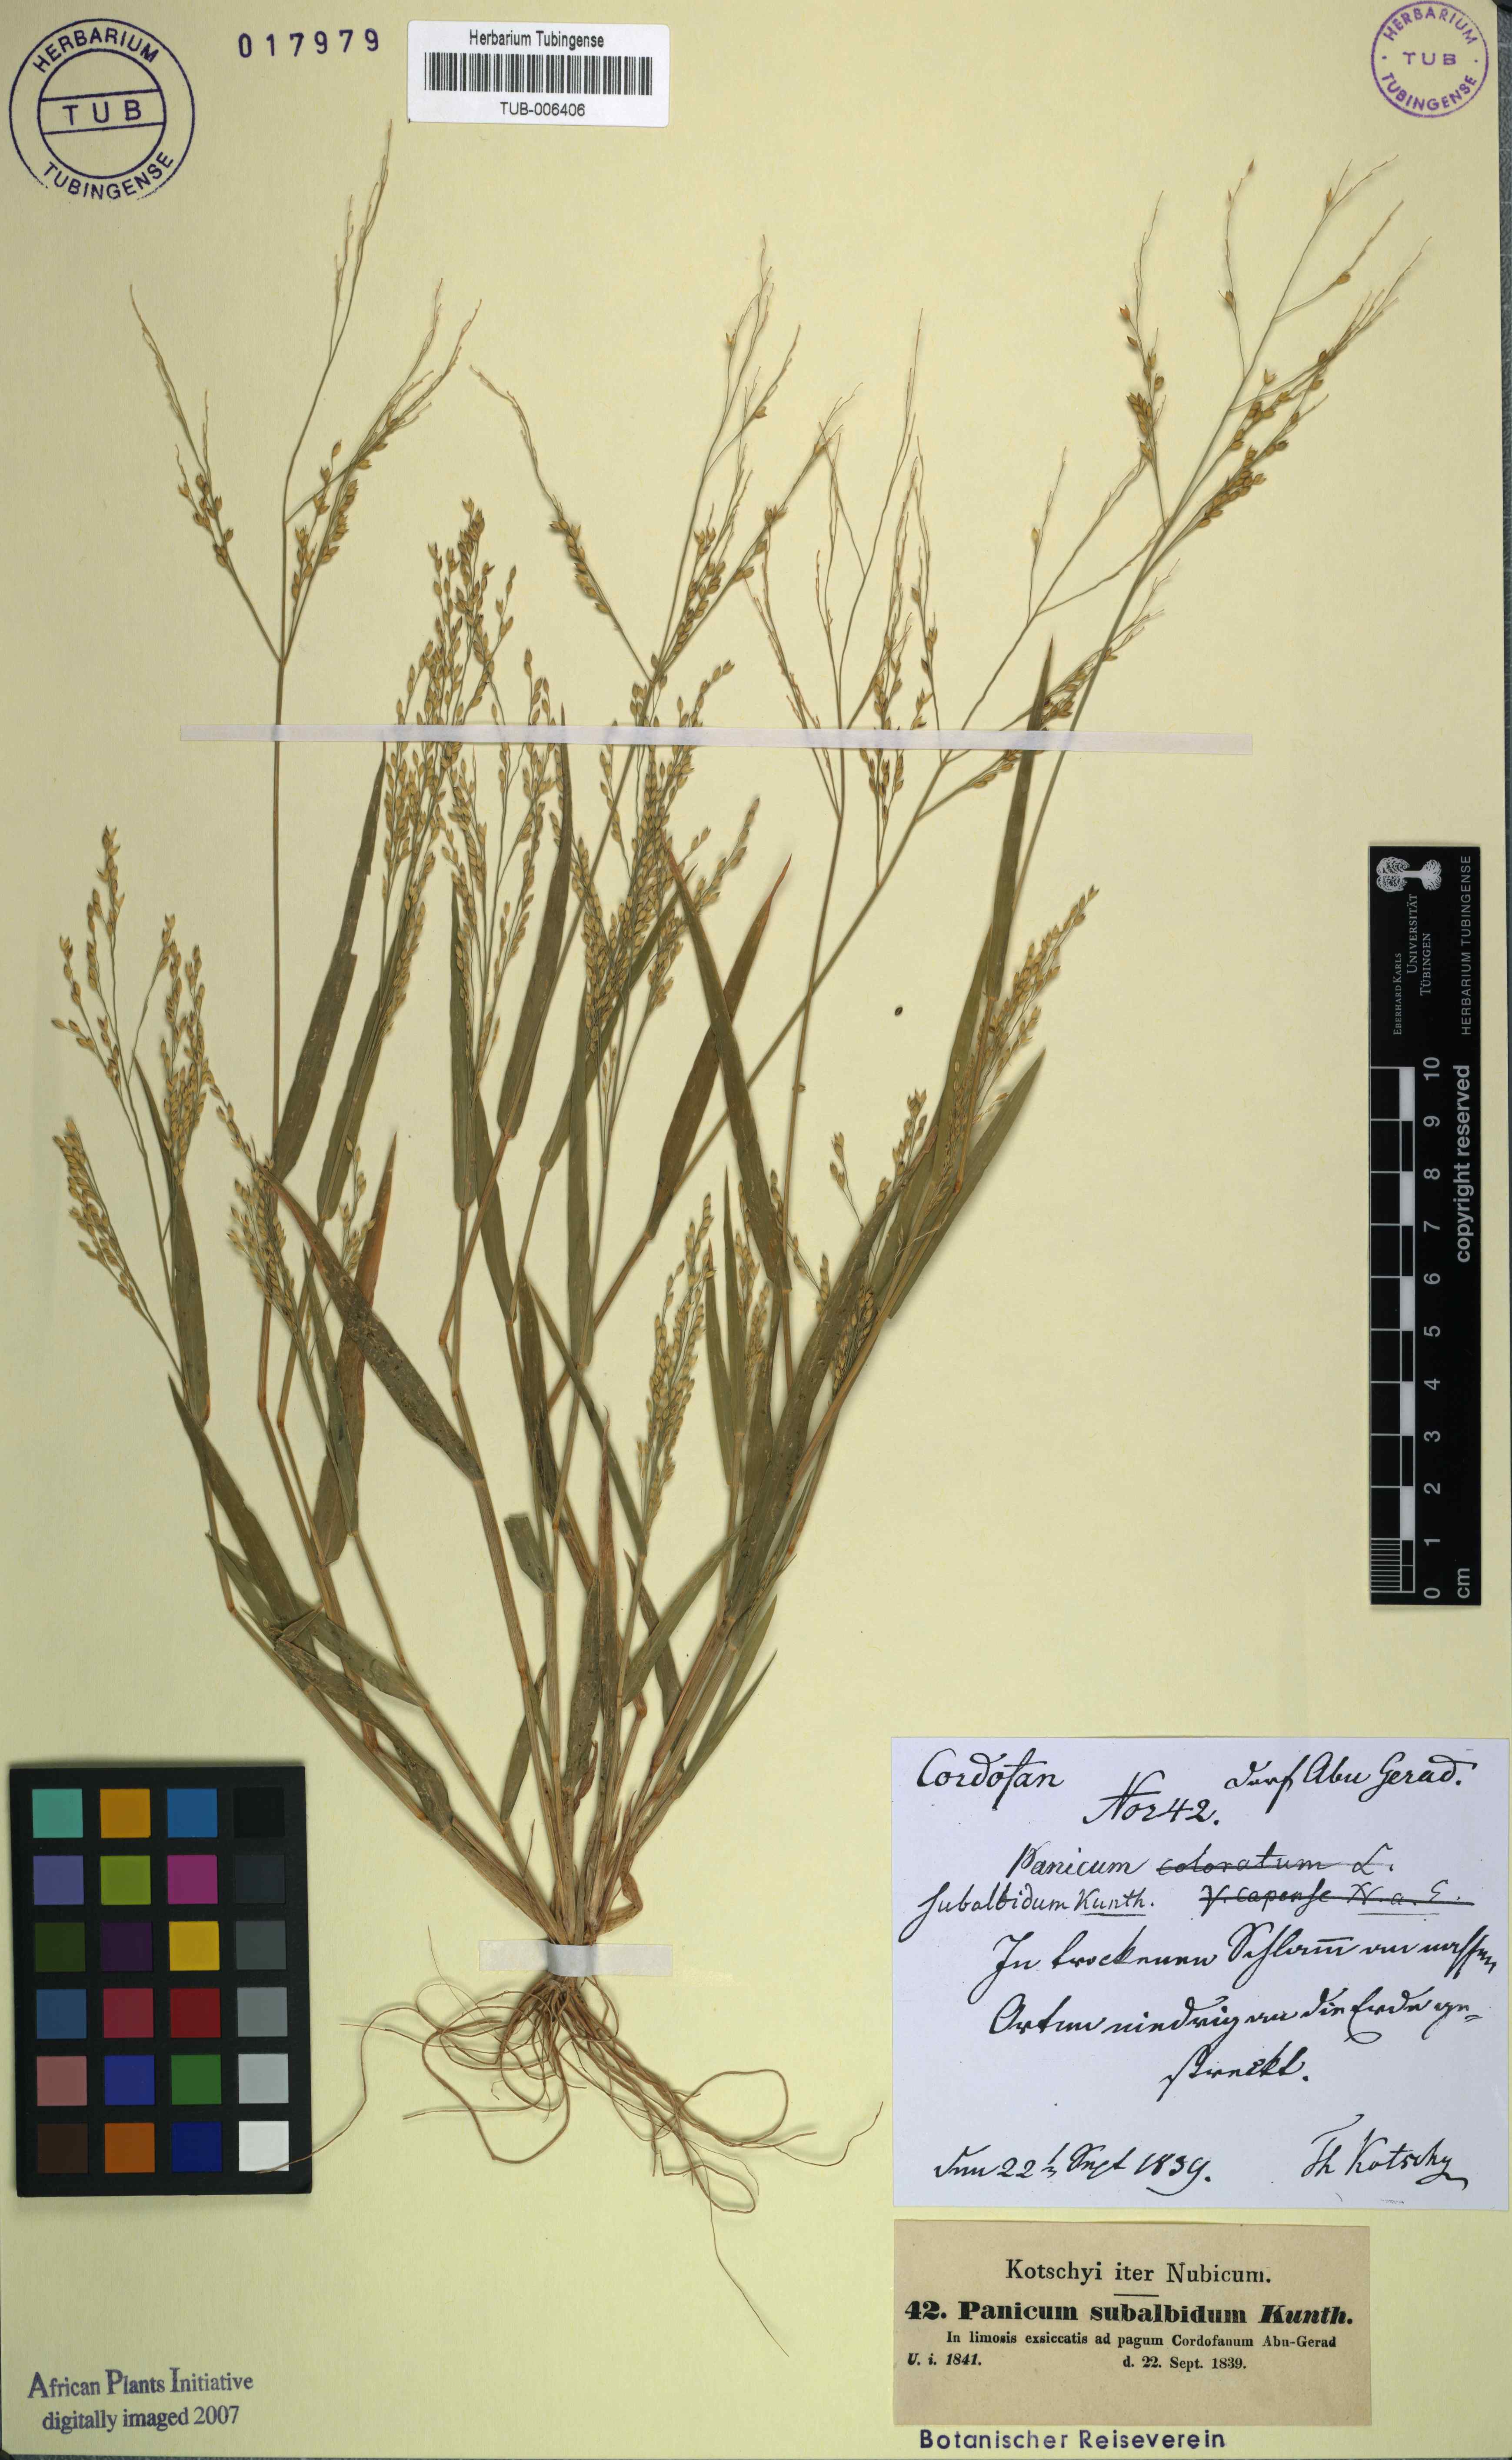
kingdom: Plantae
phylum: Tracheophyta
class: Liliopsida
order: Poales
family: Poaceae
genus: Panicum
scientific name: Panicum antidotale
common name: Blue panicum
